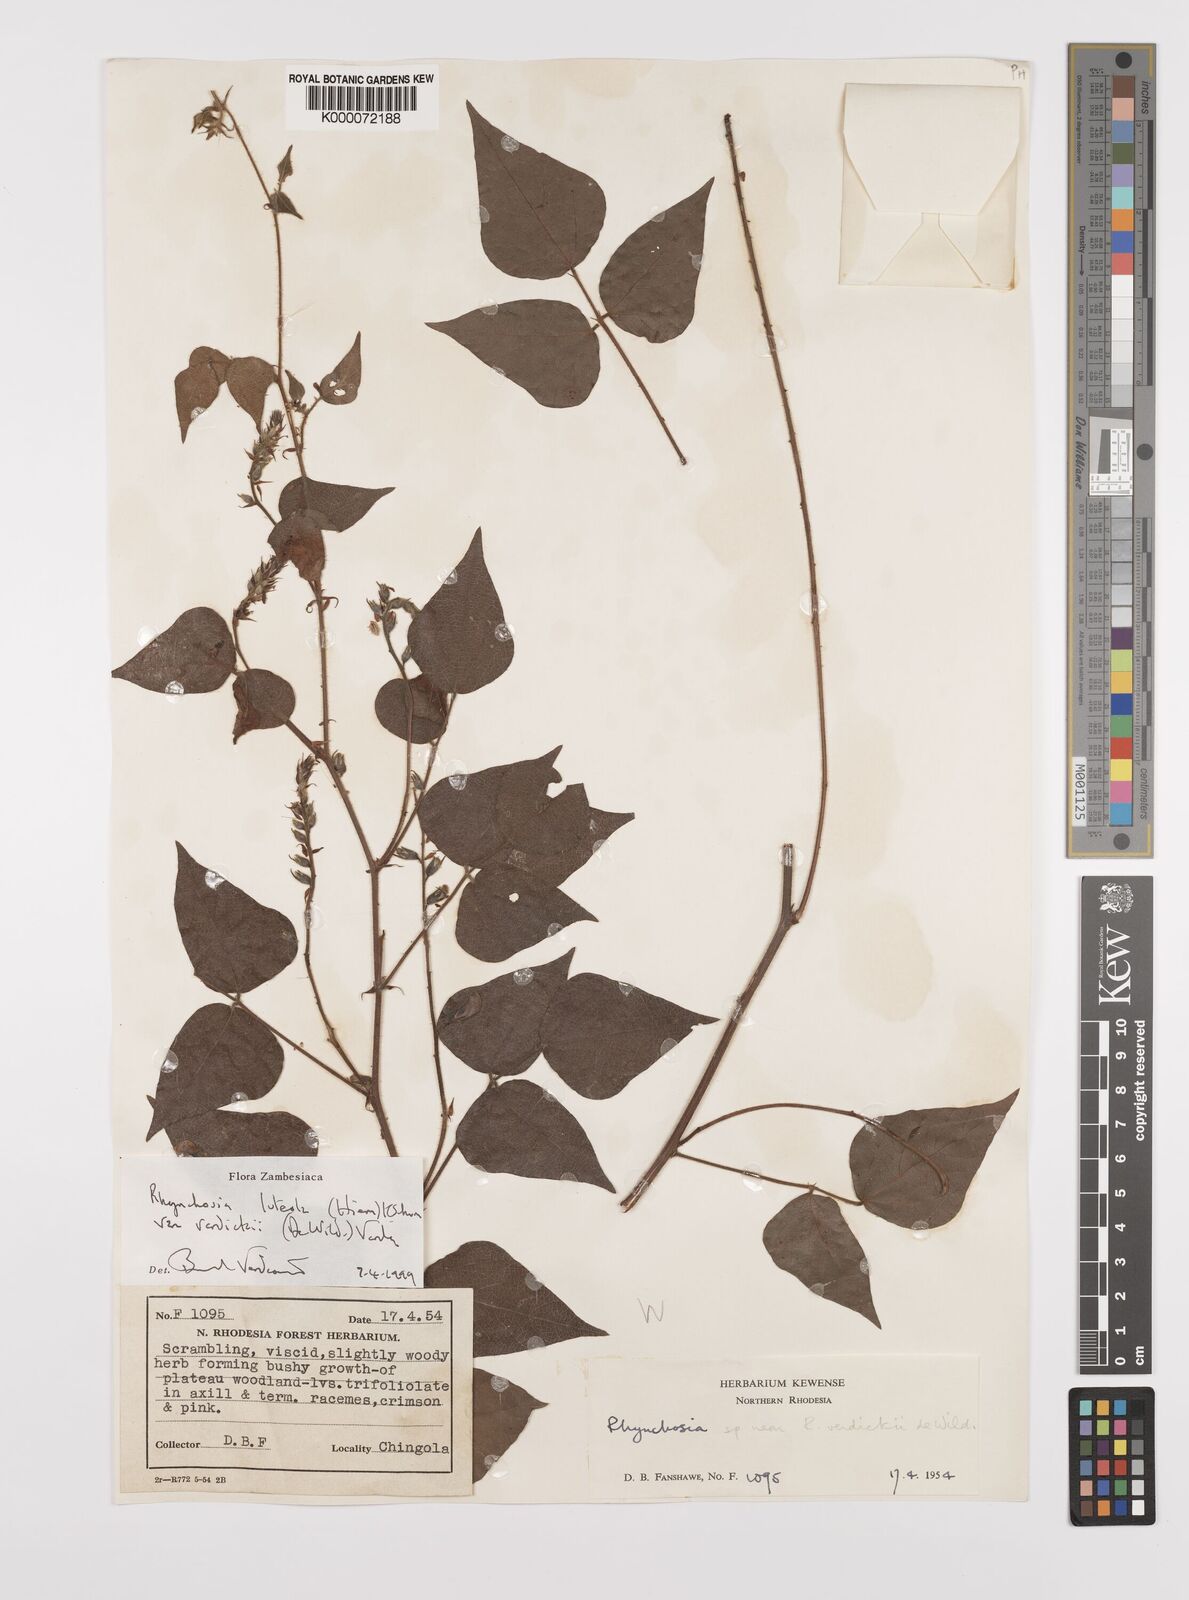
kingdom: Plantae
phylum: Tracheophyta
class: Magnoliopsida
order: Fabales
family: Fabaceae
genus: Rhynchosia
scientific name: Rhynchosia luteola
